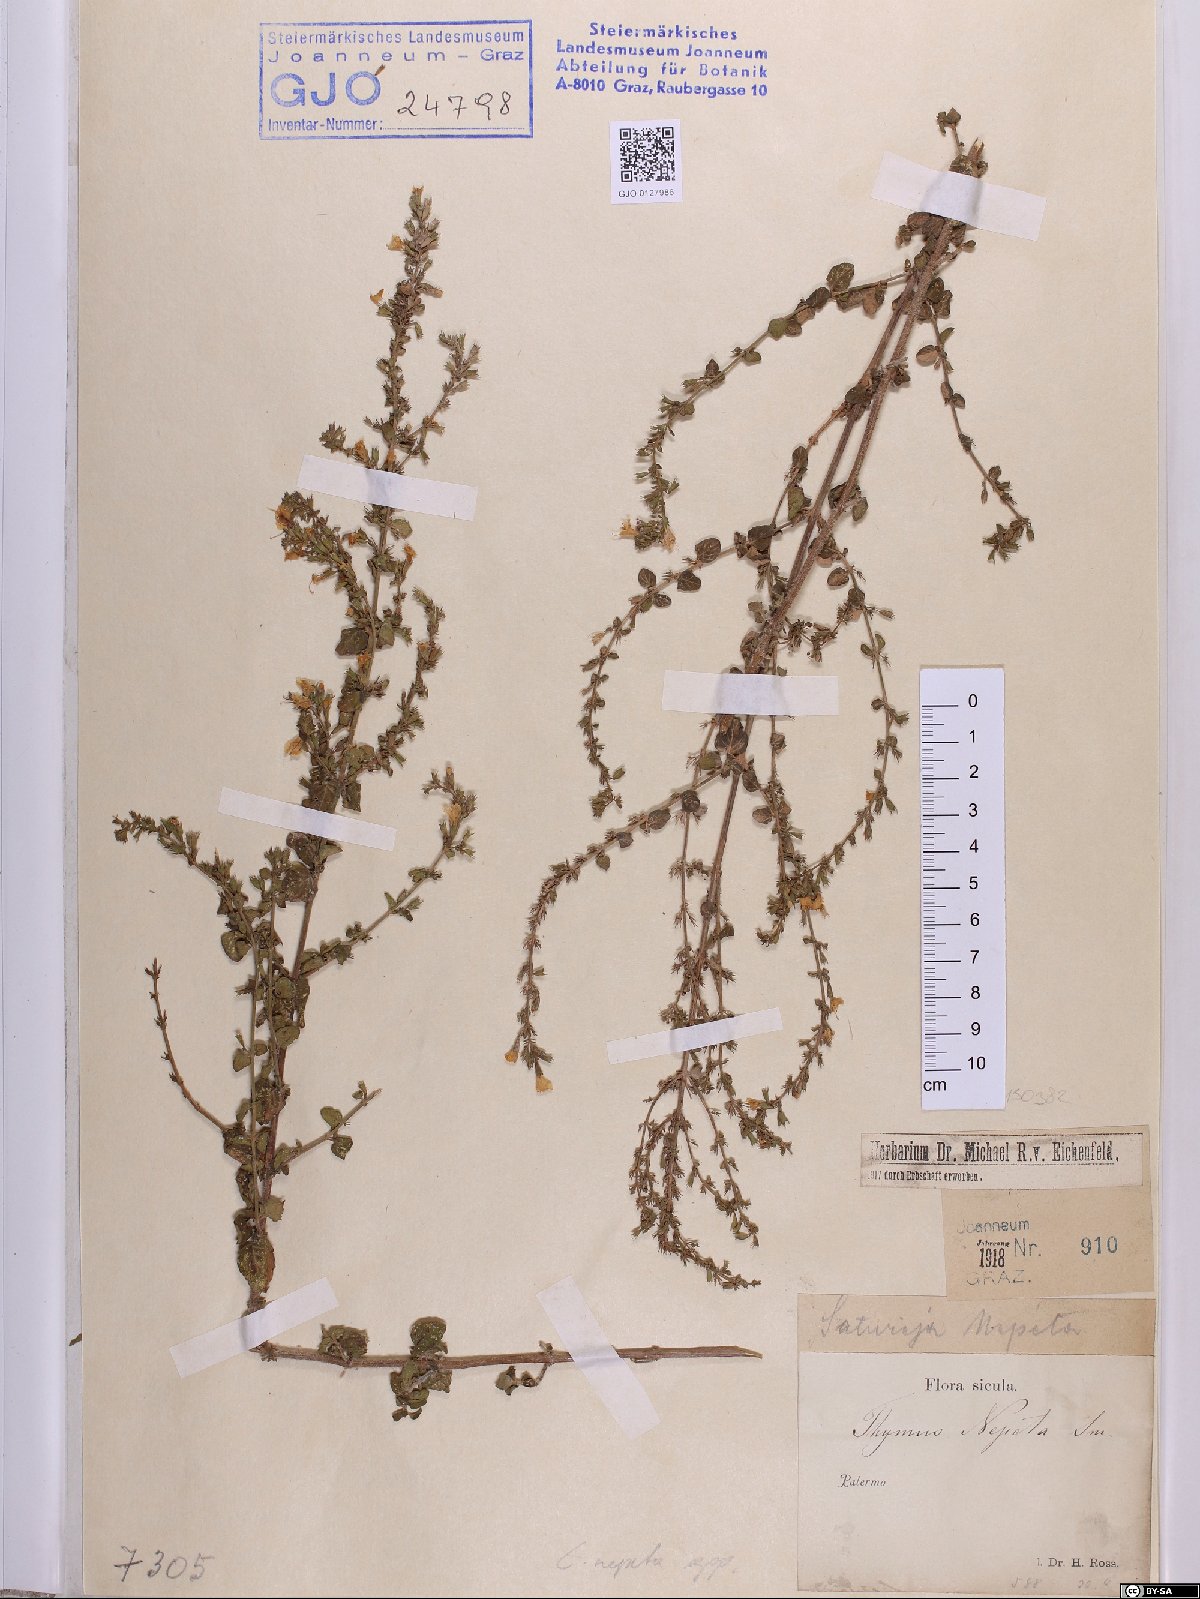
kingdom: Plantae
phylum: Tracheophyta
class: Magnoliopsida
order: Lamiales
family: Lamiaceae
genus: Clinopodium
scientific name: Clinopodium nepeta
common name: Lesser calamint
